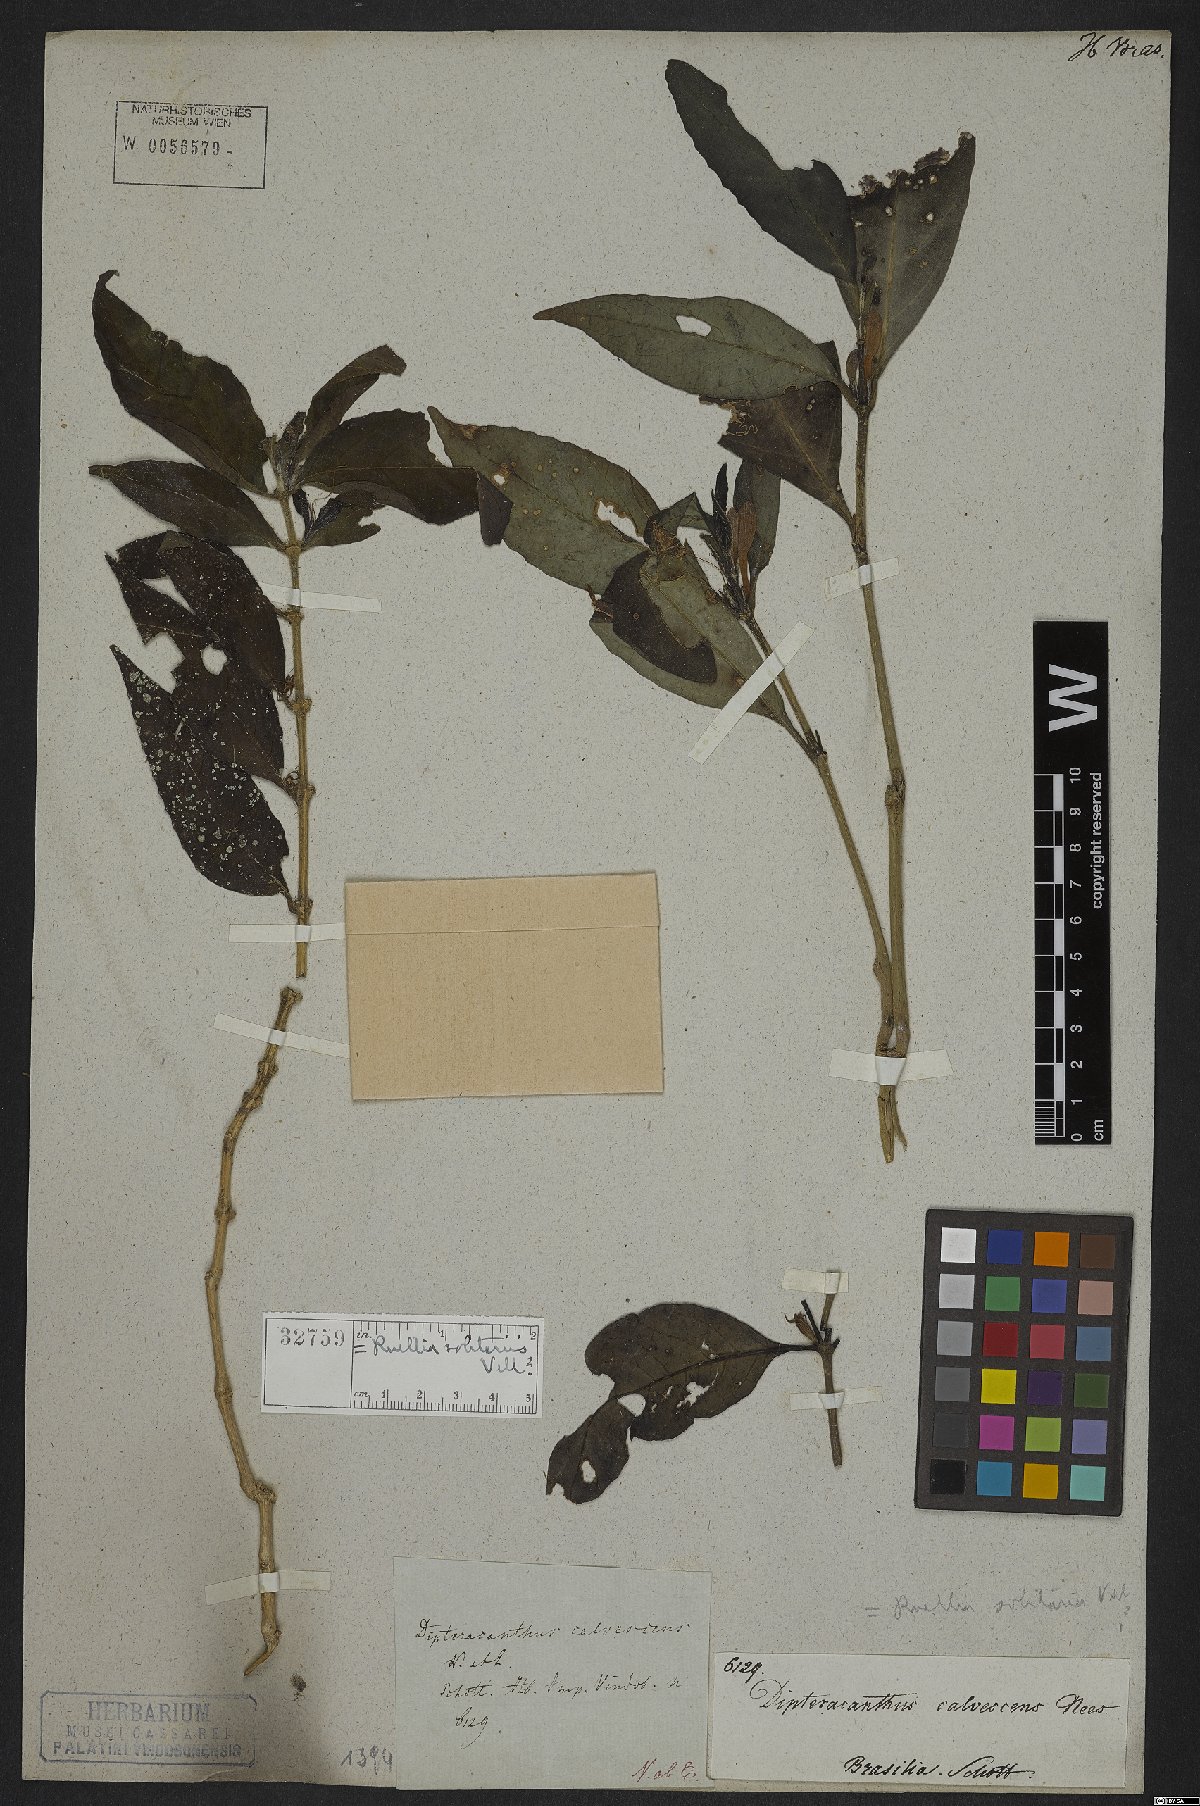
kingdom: Plantae
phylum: Tracheophyta
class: Magnoliopsida
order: Lamiales
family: Acanthaceae
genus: Ruellia
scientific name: Ruellia solitaria
